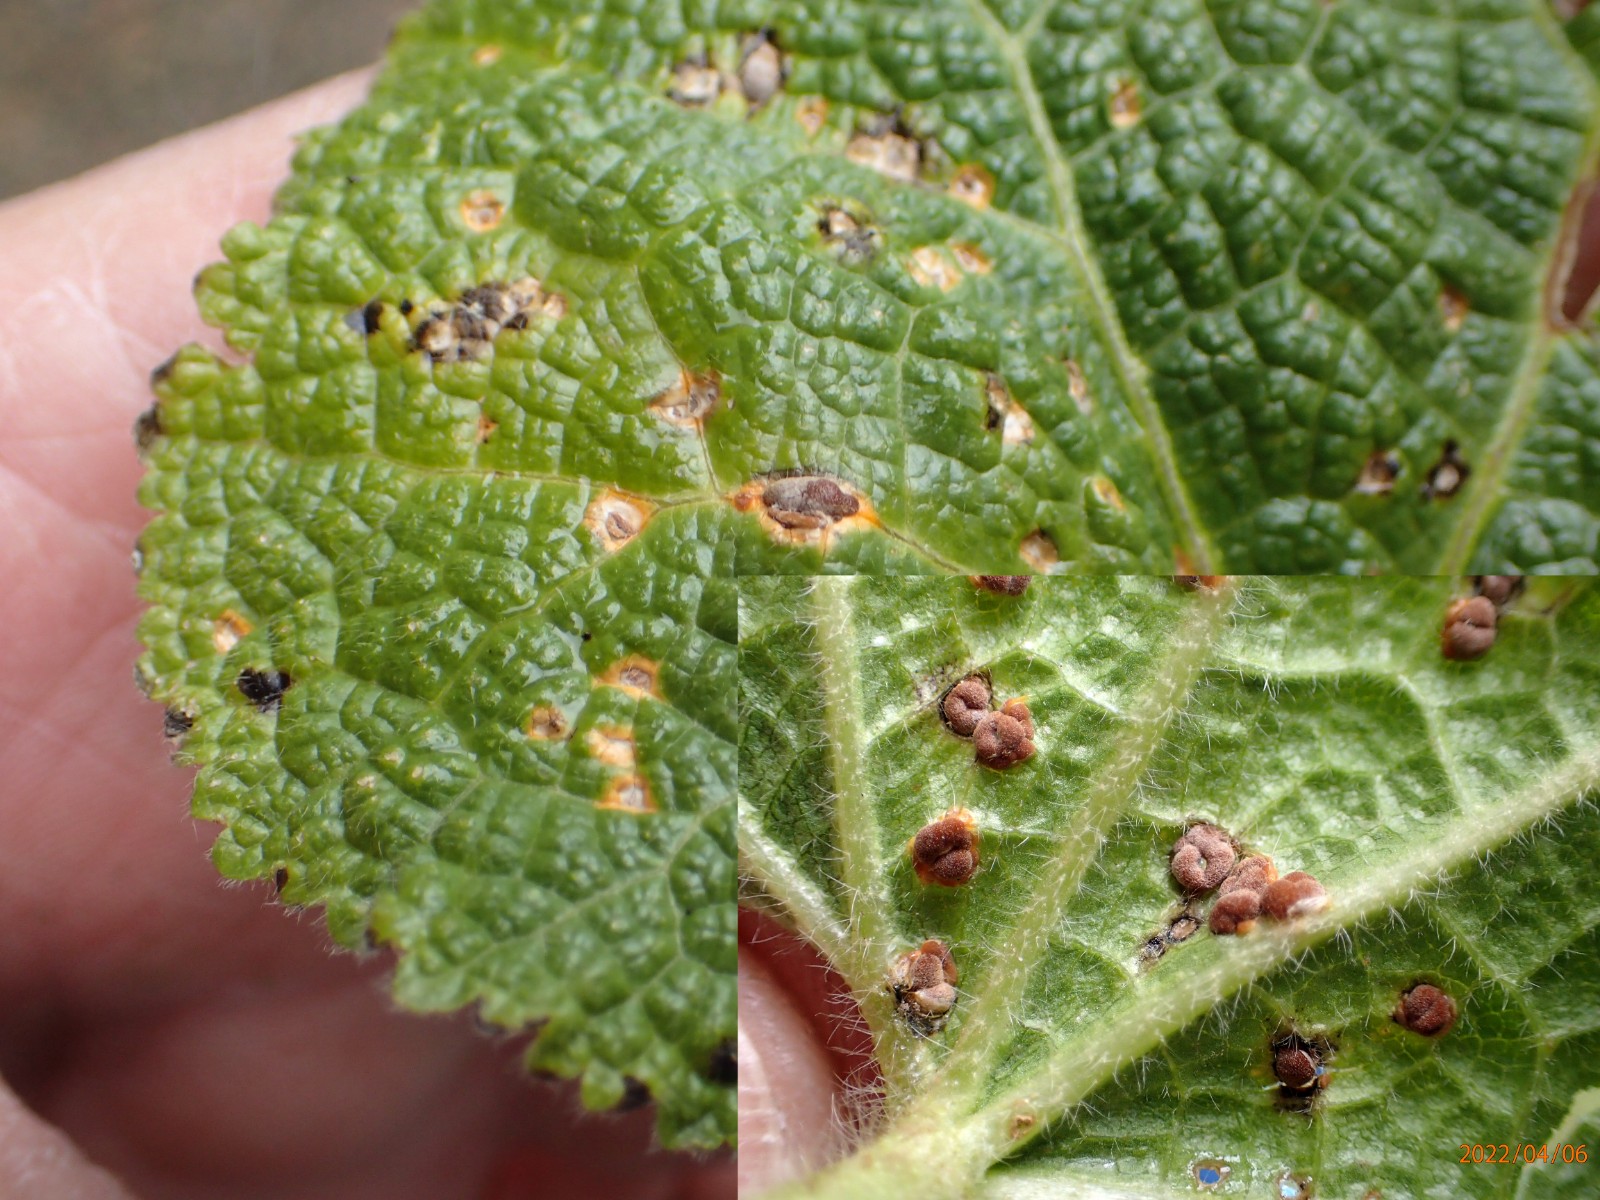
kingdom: Fungi
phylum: Basidiomycota
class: Pucciniomycetes
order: Pucciniales
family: Pucciniaceae
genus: Puccinia
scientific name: Puccinia malvacearum
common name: stokrose-tvecellerust
